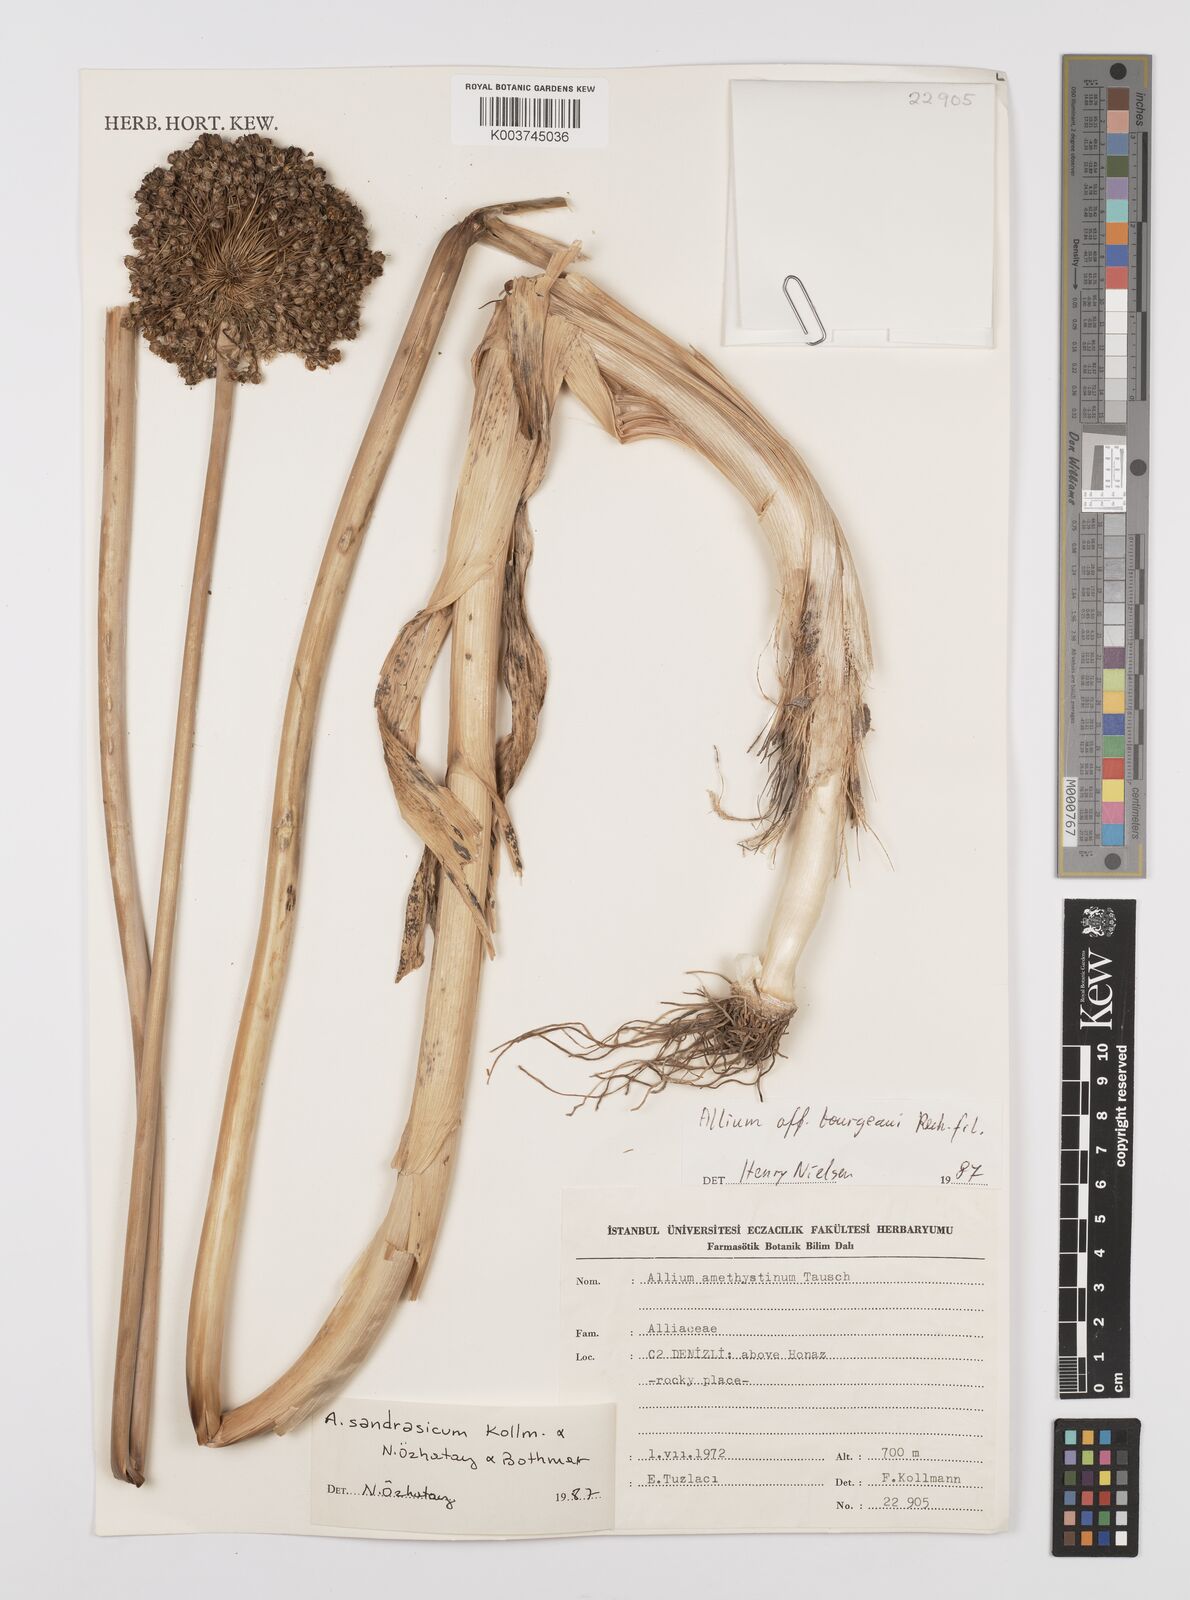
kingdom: Plantae
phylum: Tracheophyta
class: Liliopsida
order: Asparagales
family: Amaryllidaceae
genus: Allium
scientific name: Allium sandrasicum
